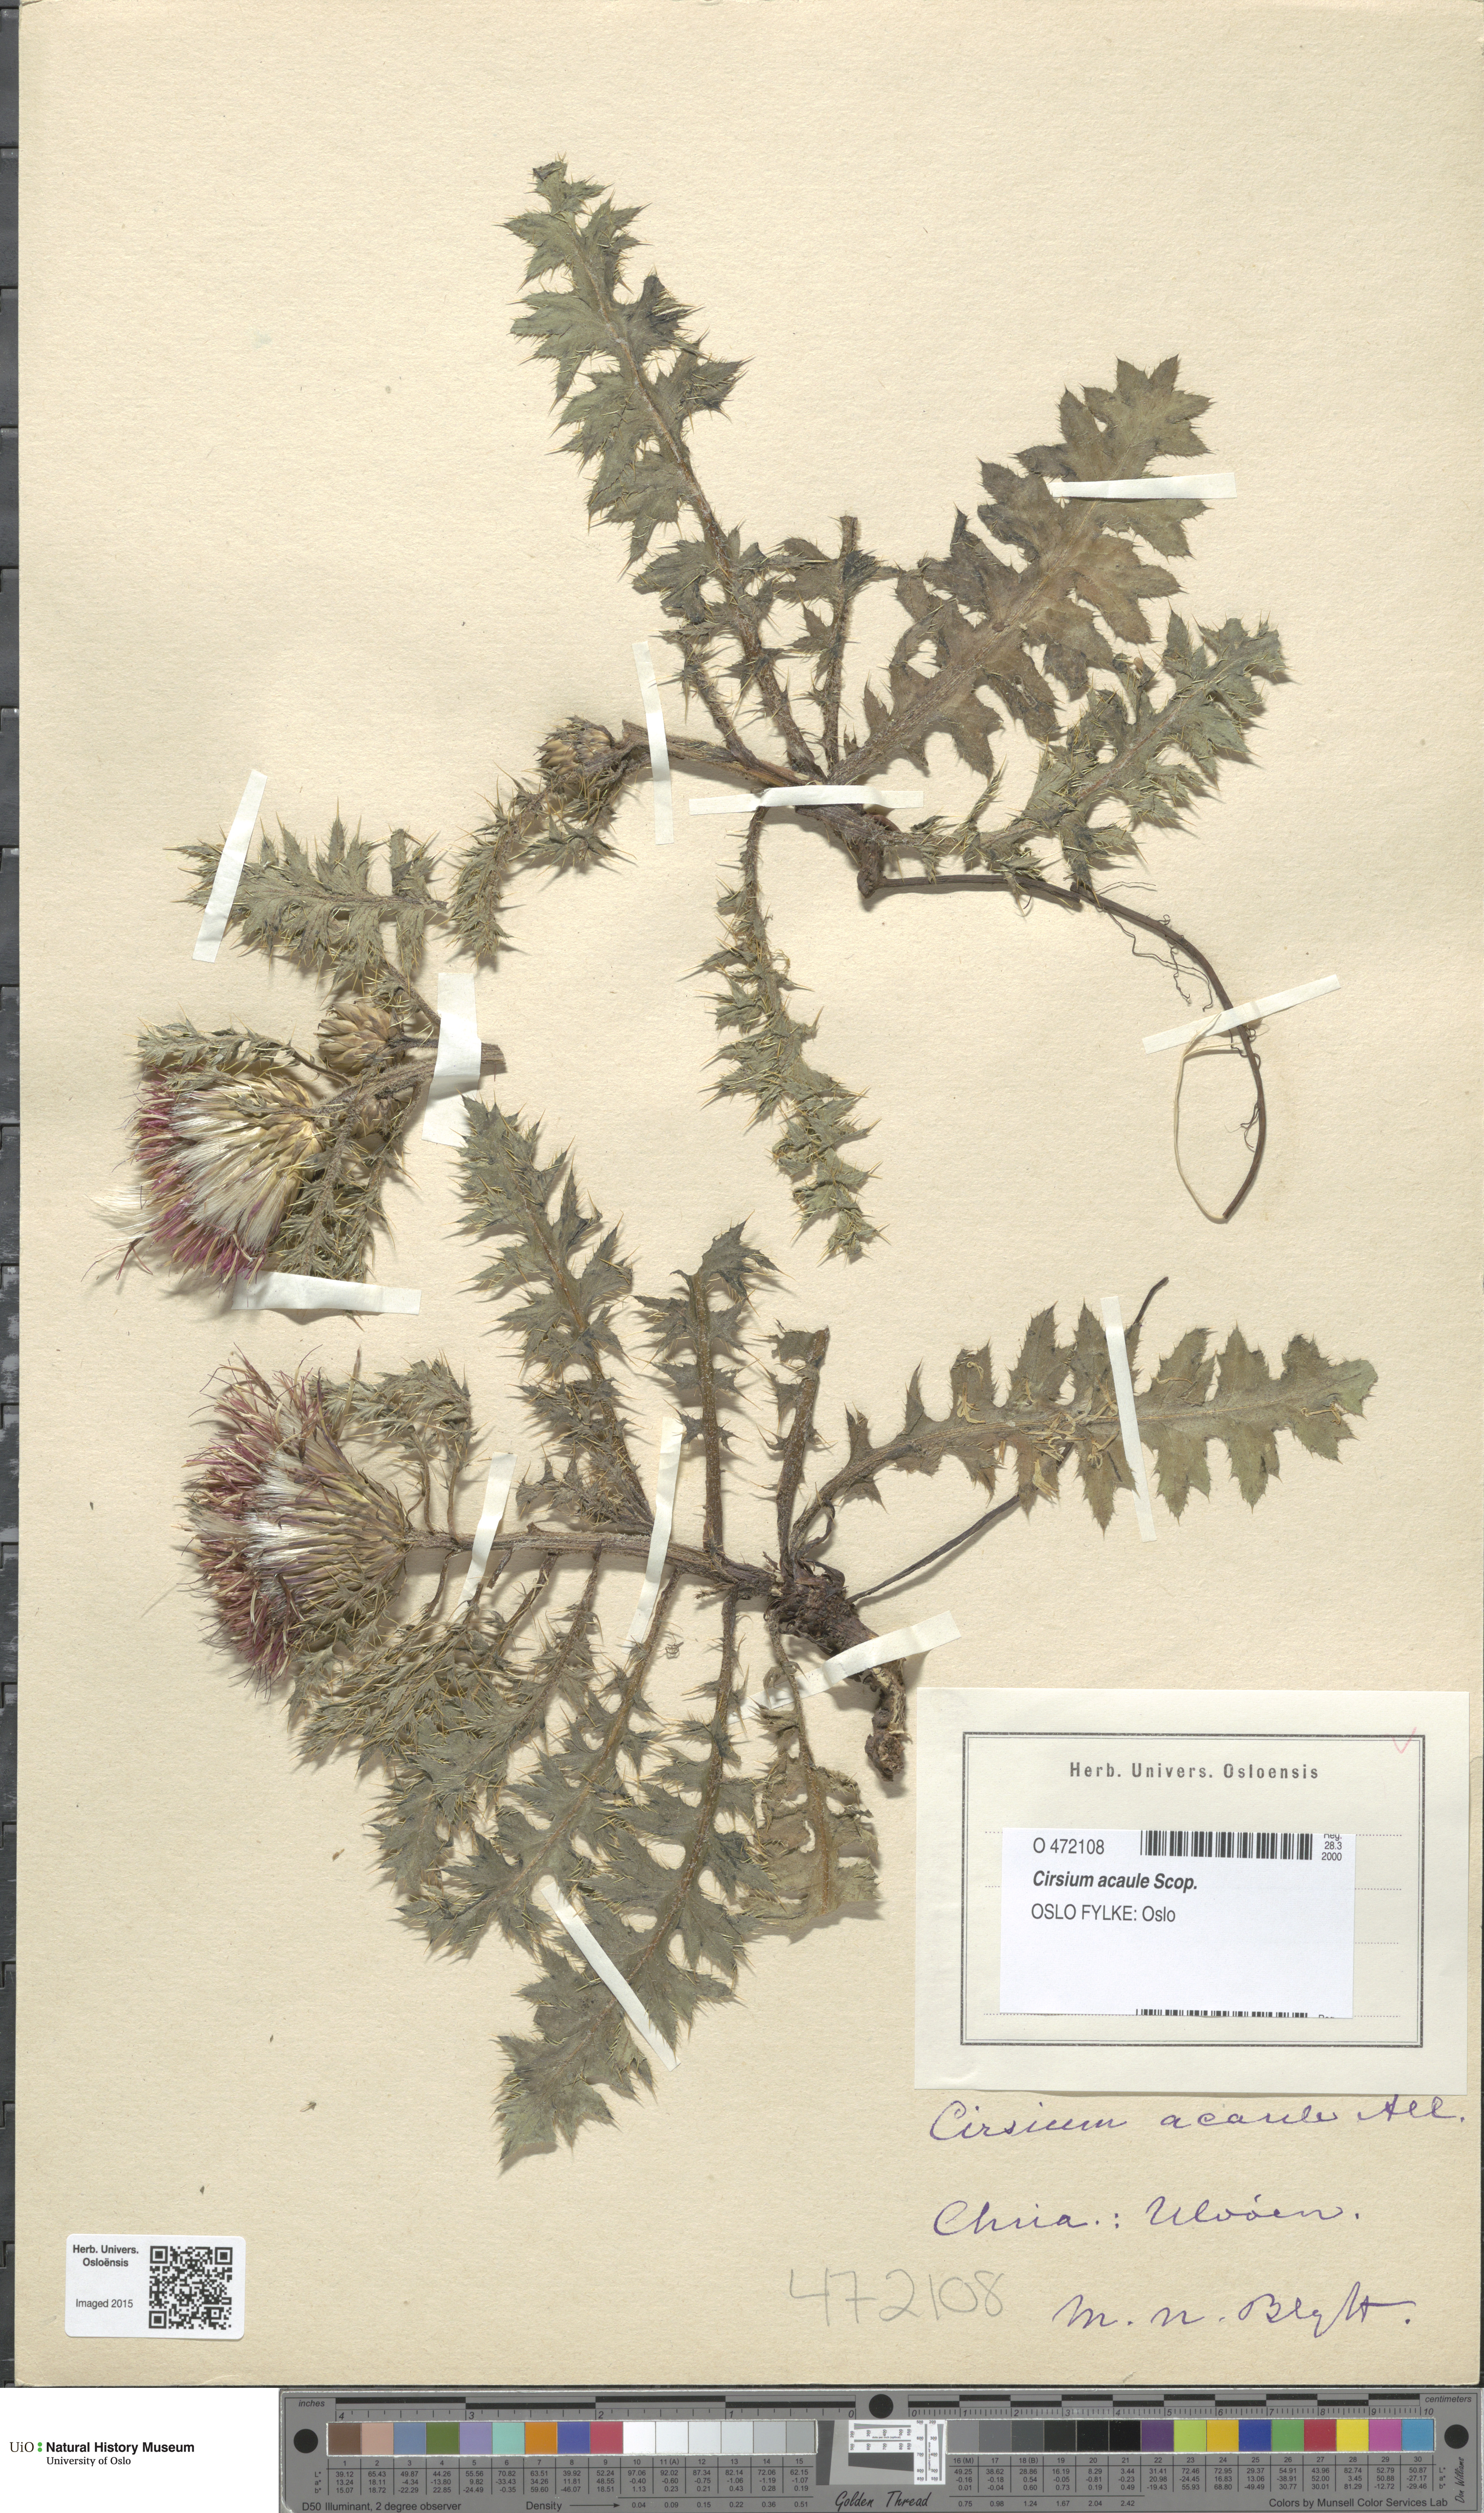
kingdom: Plantae
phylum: Tracheophyta
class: Magnoliopsida
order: Asterales
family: Asteraceae
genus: Cirsium
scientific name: Cirsium acaulon
